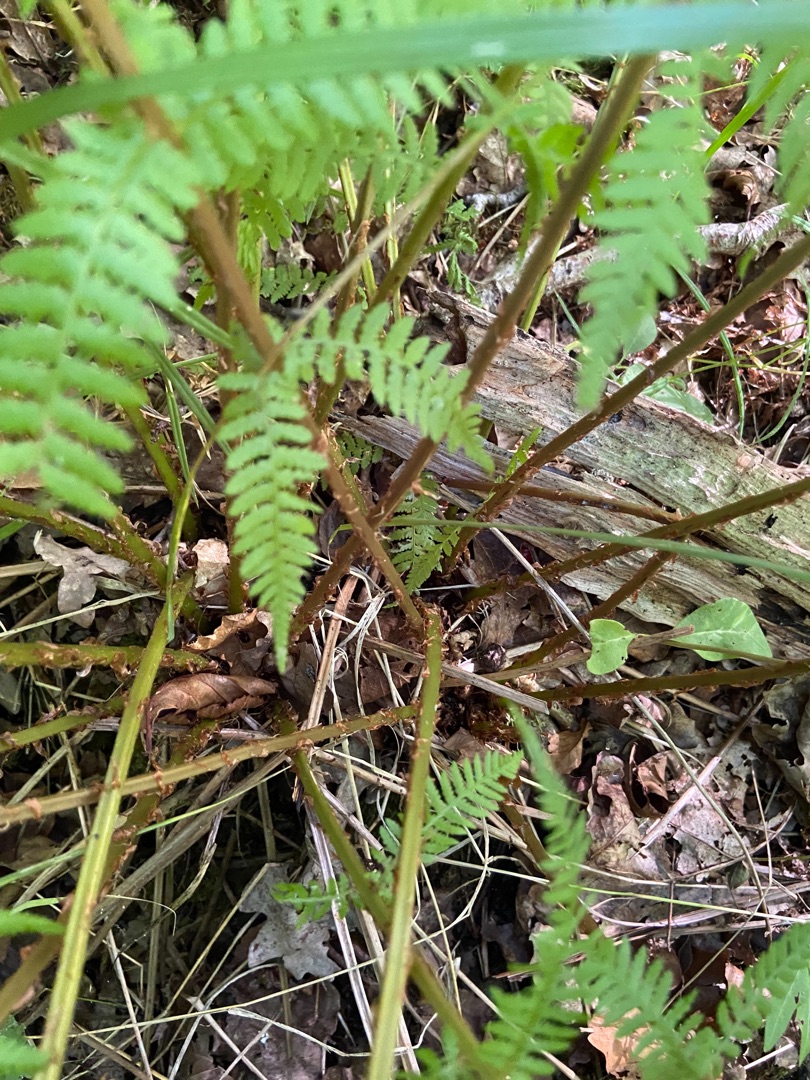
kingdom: Plantae
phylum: Tracheophyta
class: Polypodiopsida
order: Polypodiales
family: Athyriaceae
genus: Athyrium
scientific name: Athyrium filix-femina
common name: Fjerbregne
